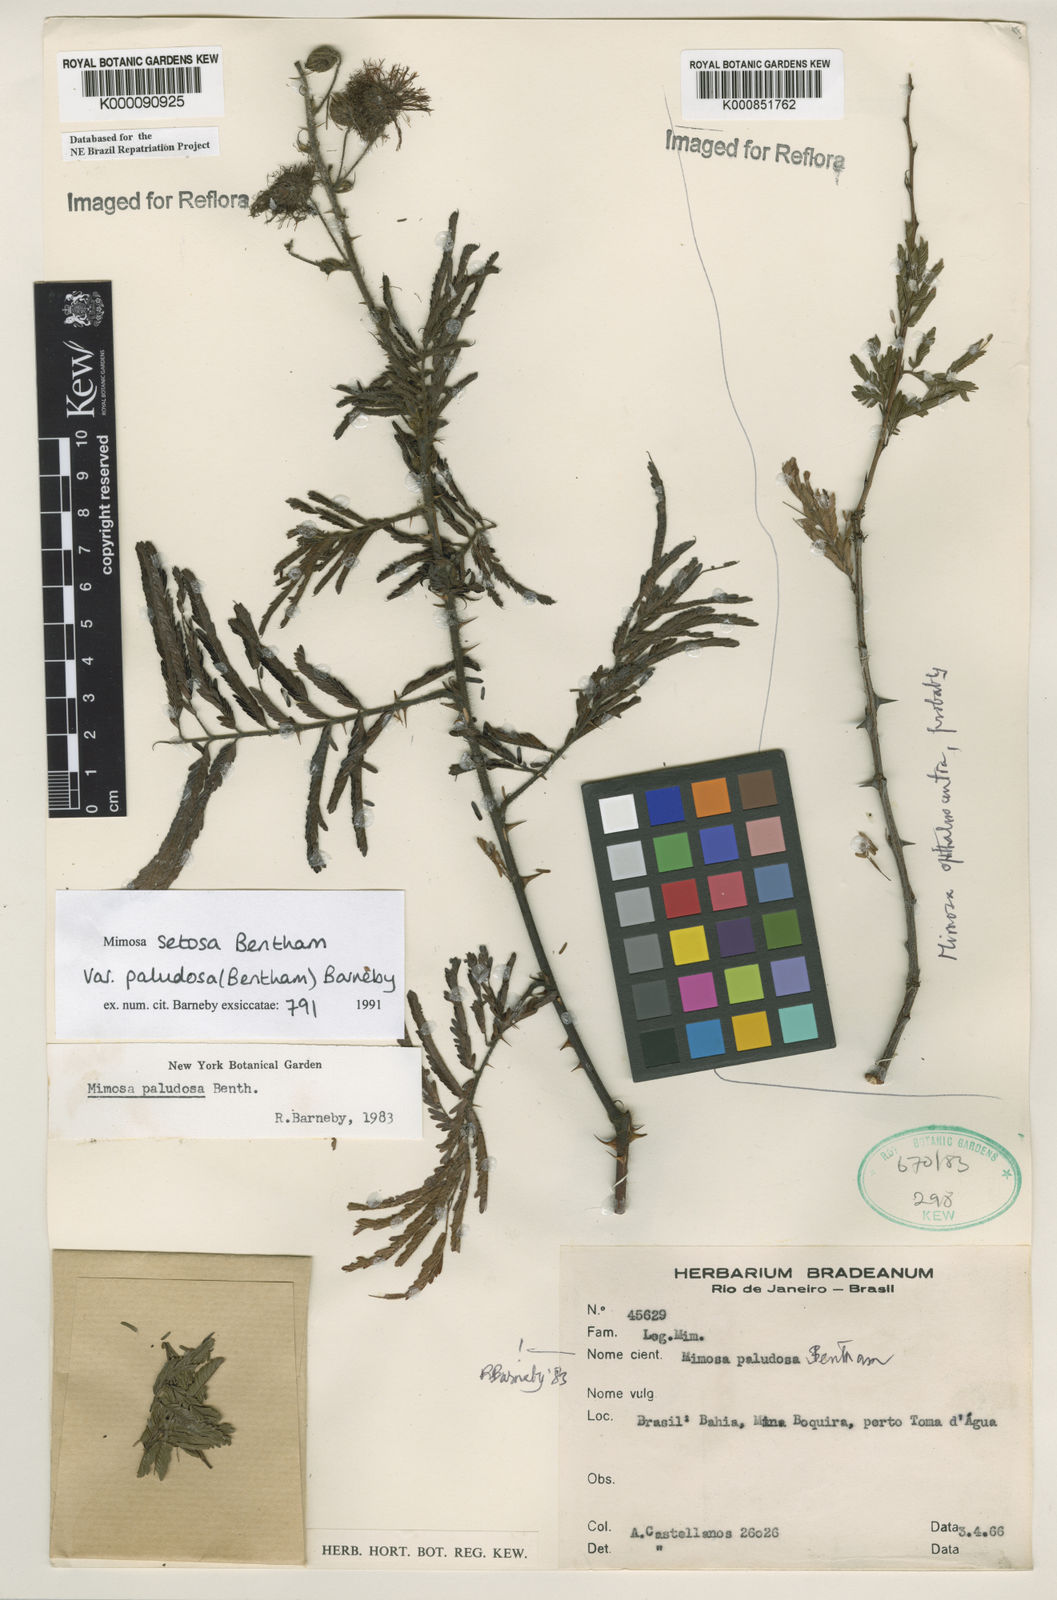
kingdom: Plantae
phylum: Tracheophyta
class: Magnoliopsida
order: Fabales
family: Fabaceae
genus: Mimosa
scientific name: Mimosa paludosa
